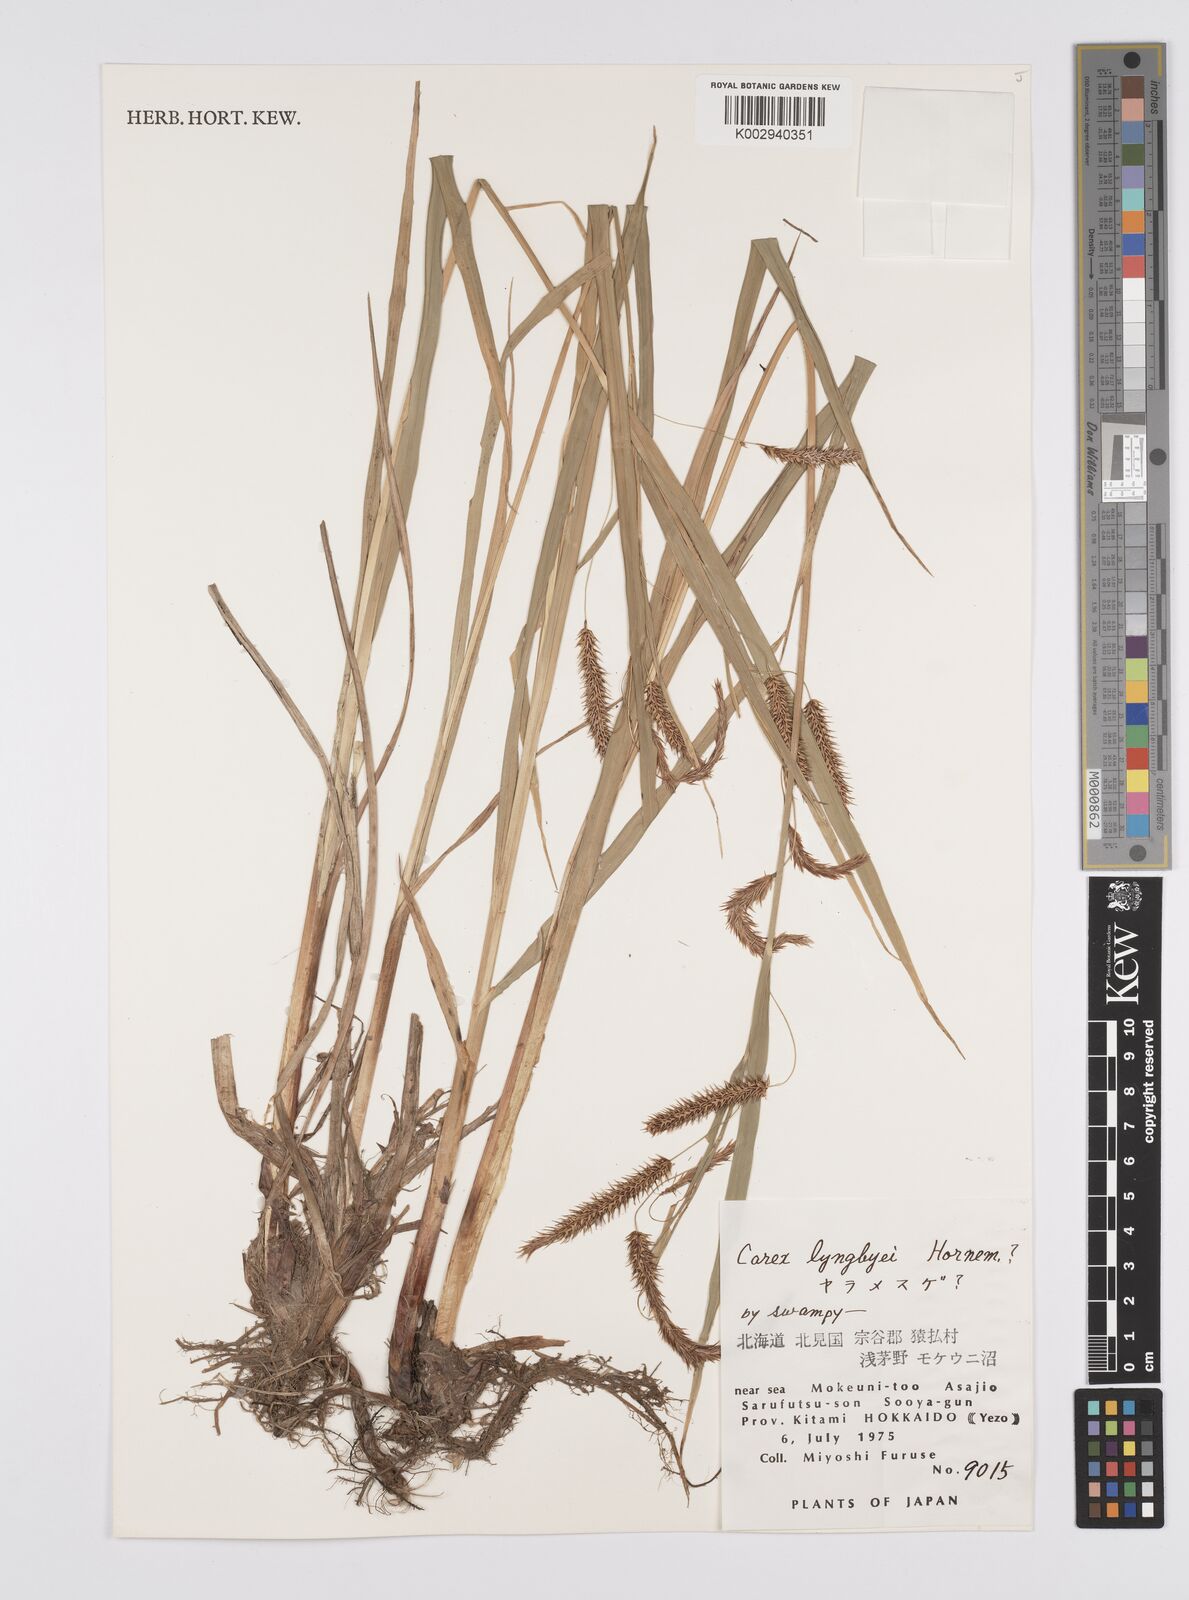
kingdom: Plantae
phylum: Tracheophyta
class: Liliopsida
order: Poales
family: Cyperaceae
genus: Carex
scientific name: Carex lyngbyei
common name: Lyngbye's sedge
